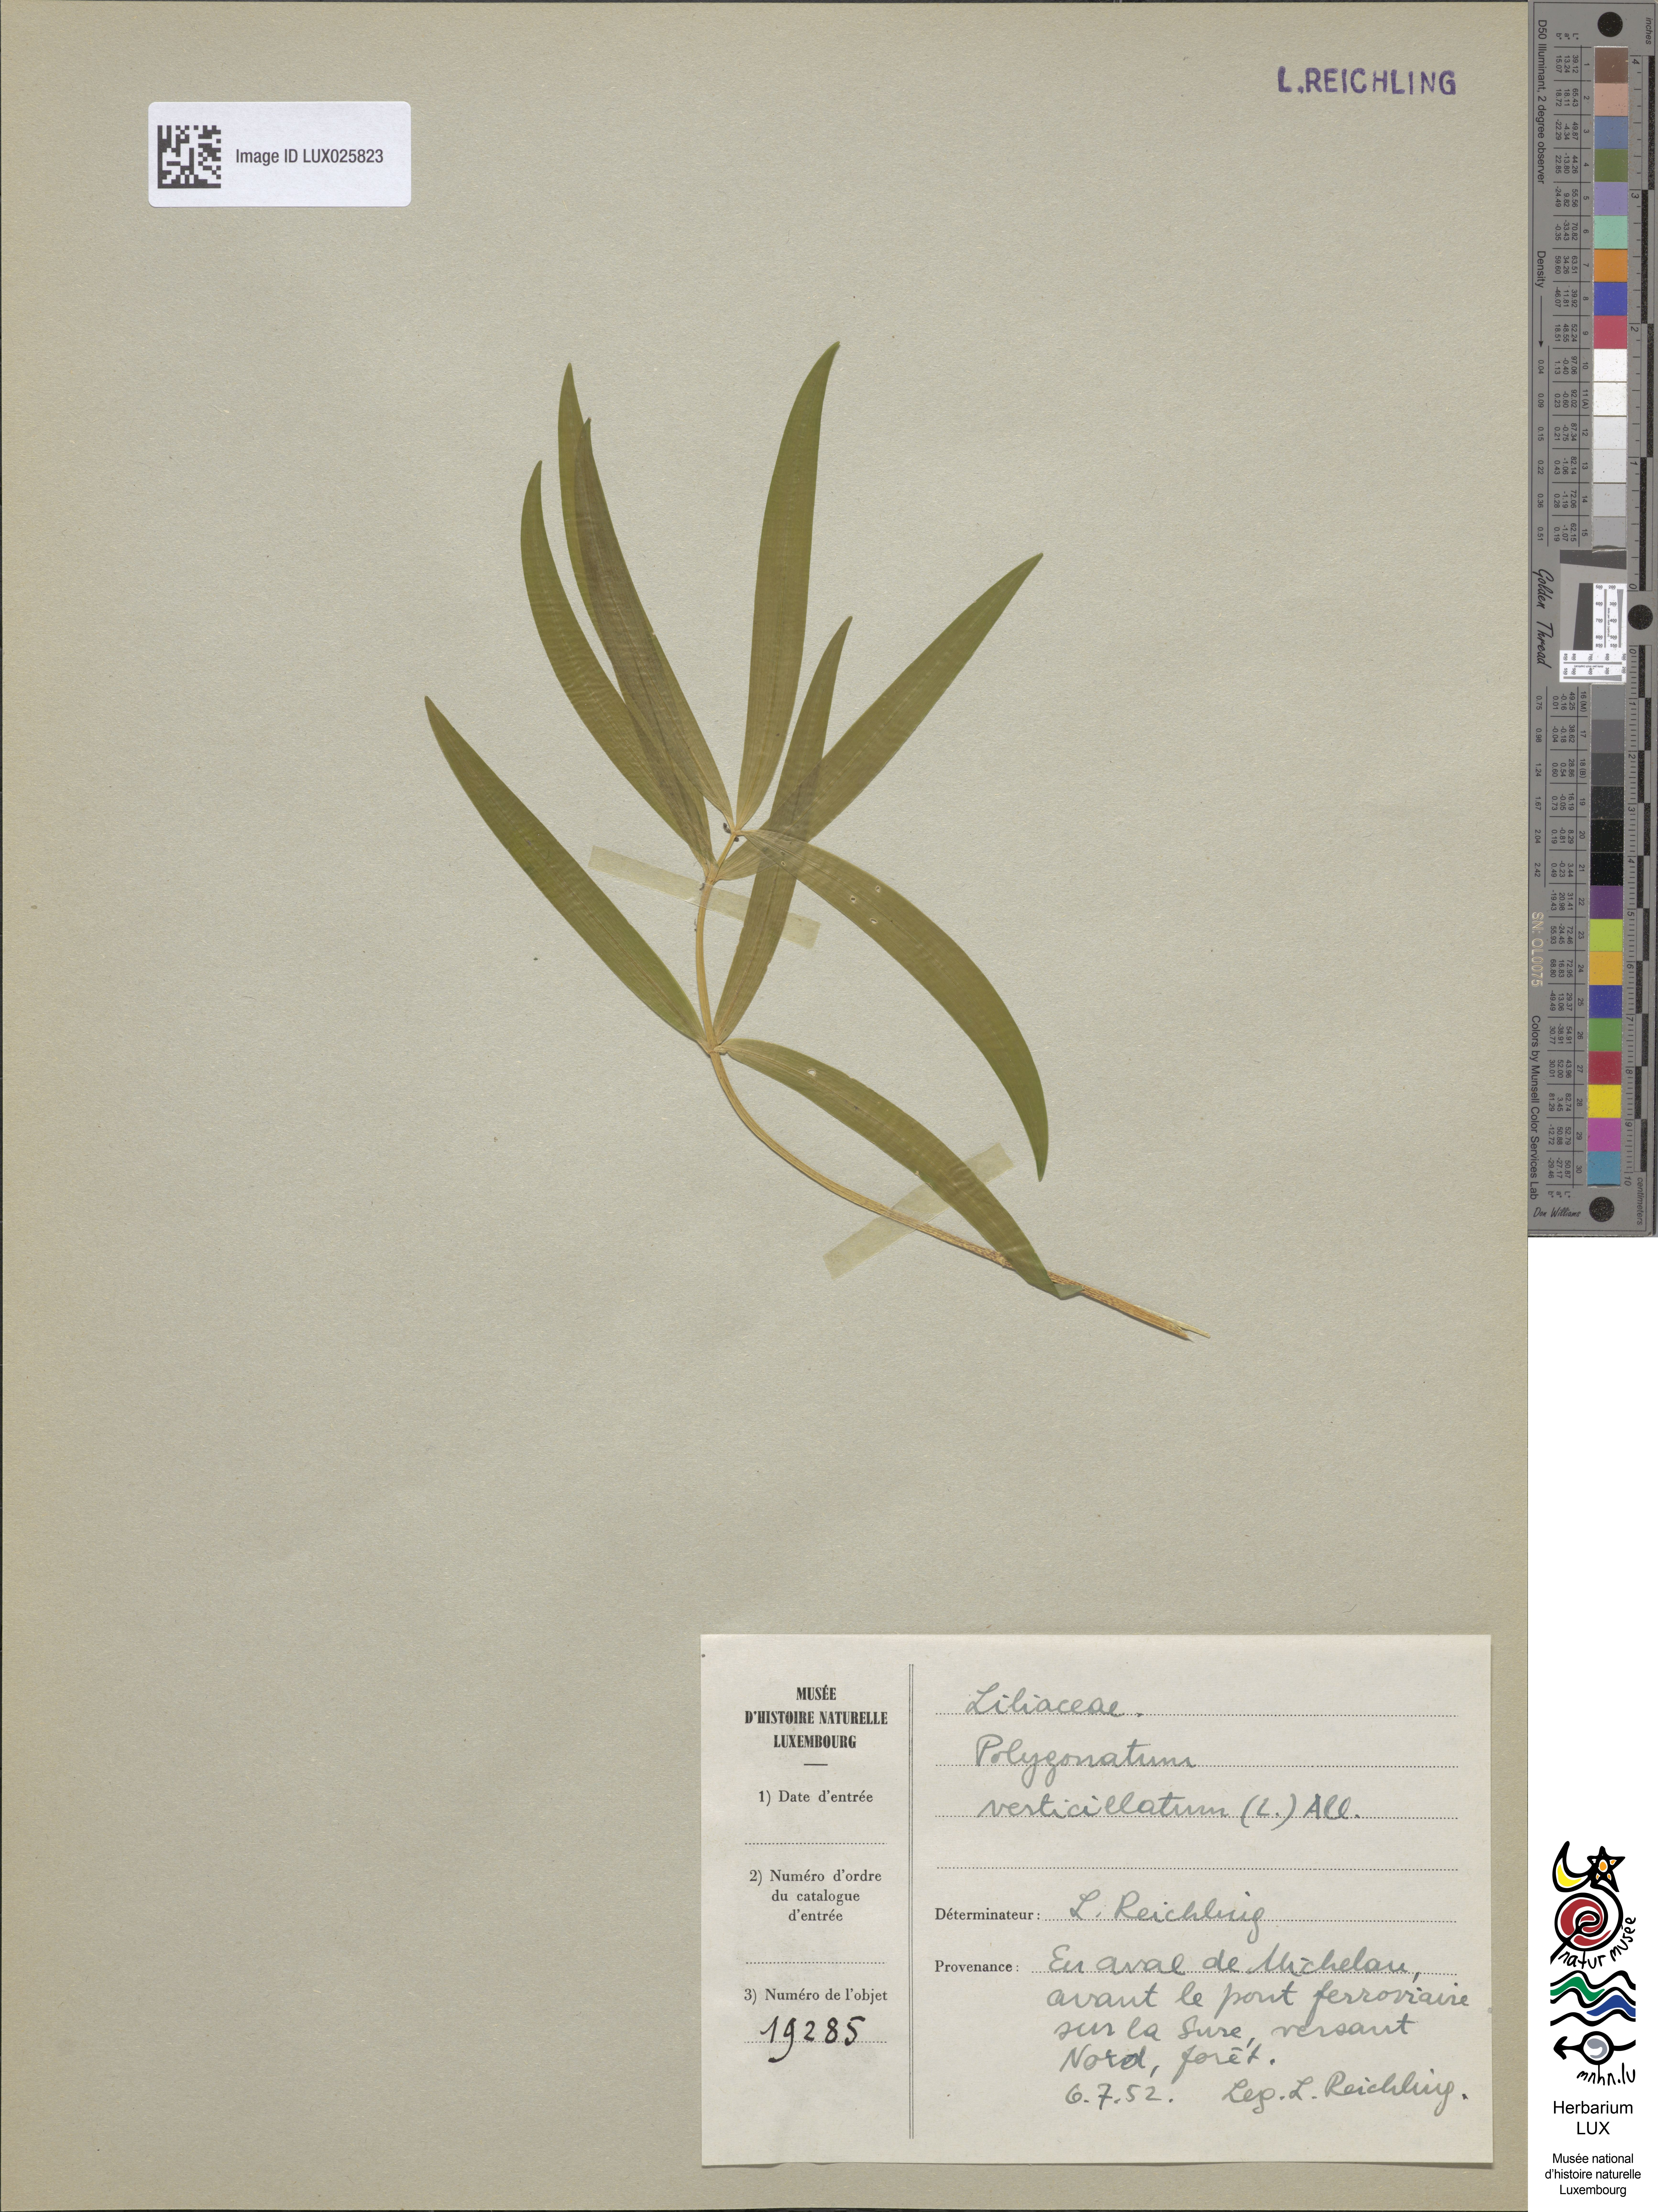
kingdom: Plantae
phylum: Tracheophyta
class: Liliopsida
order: Asparagales
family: Asparagaceae
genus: Polygonatum
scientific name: Polygonatum verticillatum
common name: Whorled solomon's-seal
